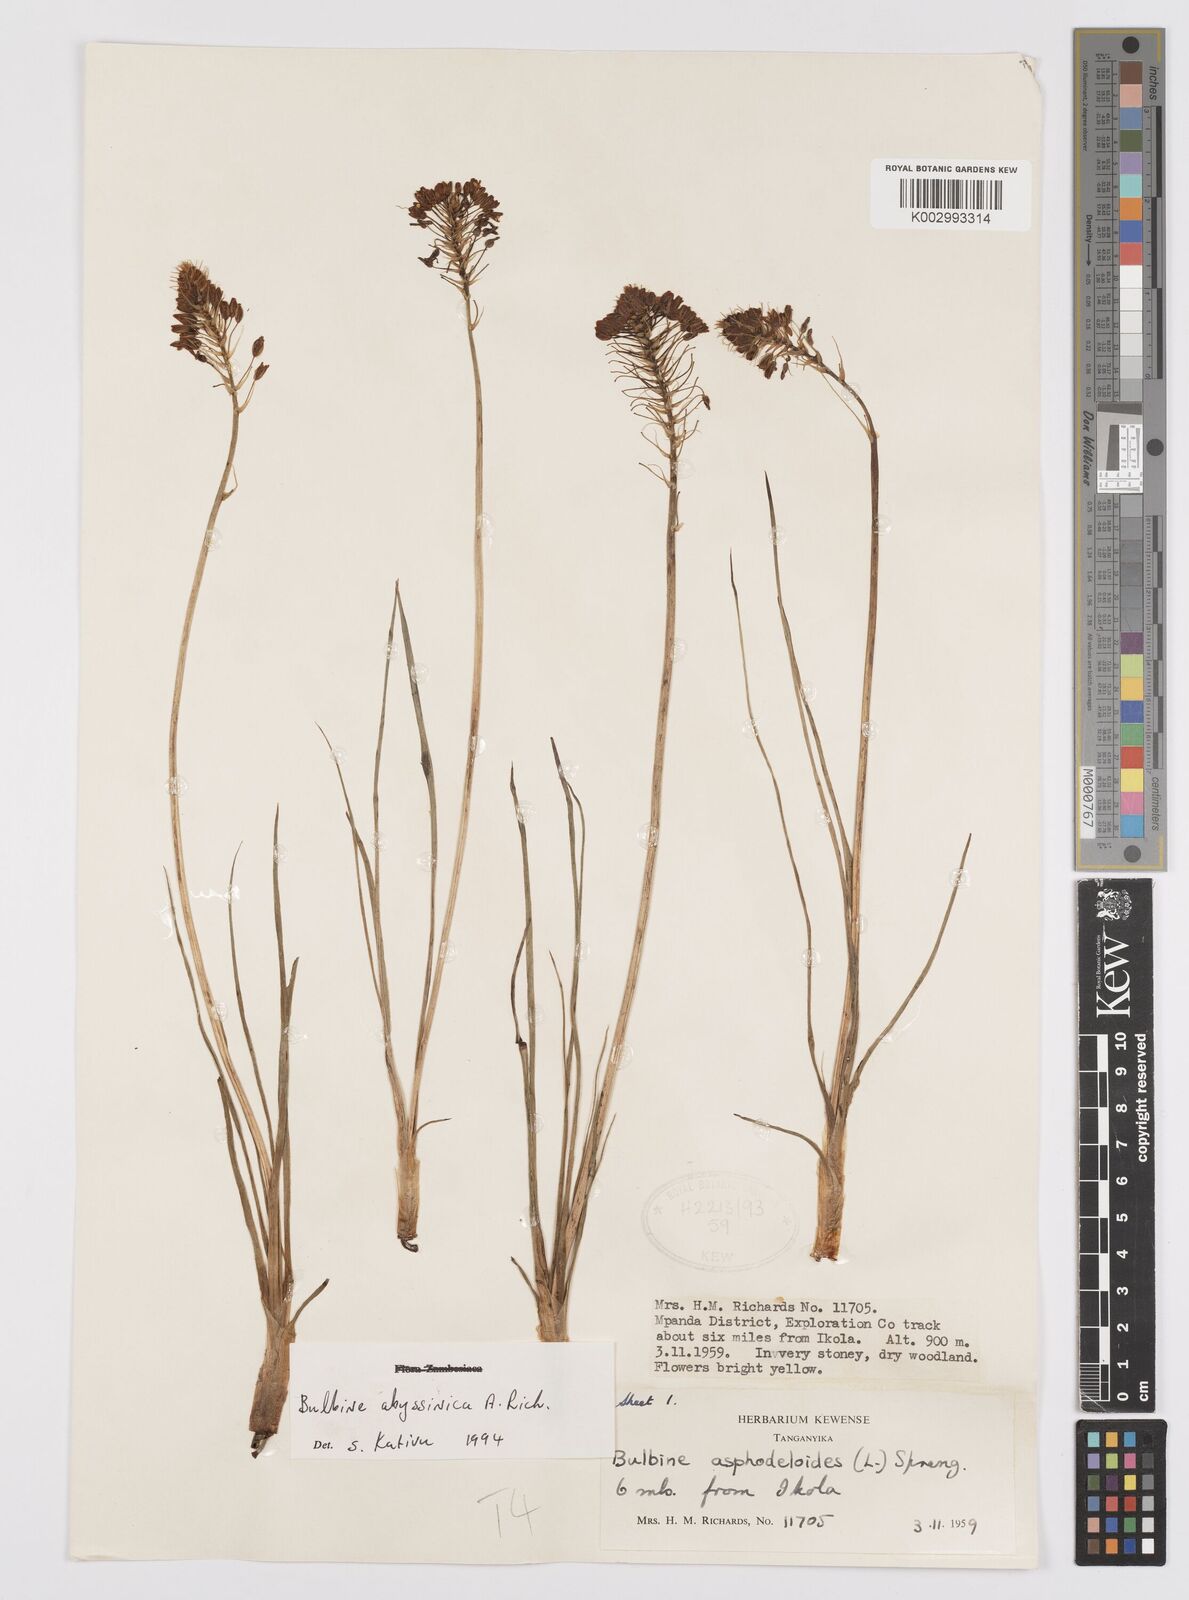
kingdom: Plantae
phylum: Tracheophyta
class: Liliopsida
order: Asparagales
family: Asphodelaceae
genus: Bulbine
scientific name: Bulbine abyssinica
